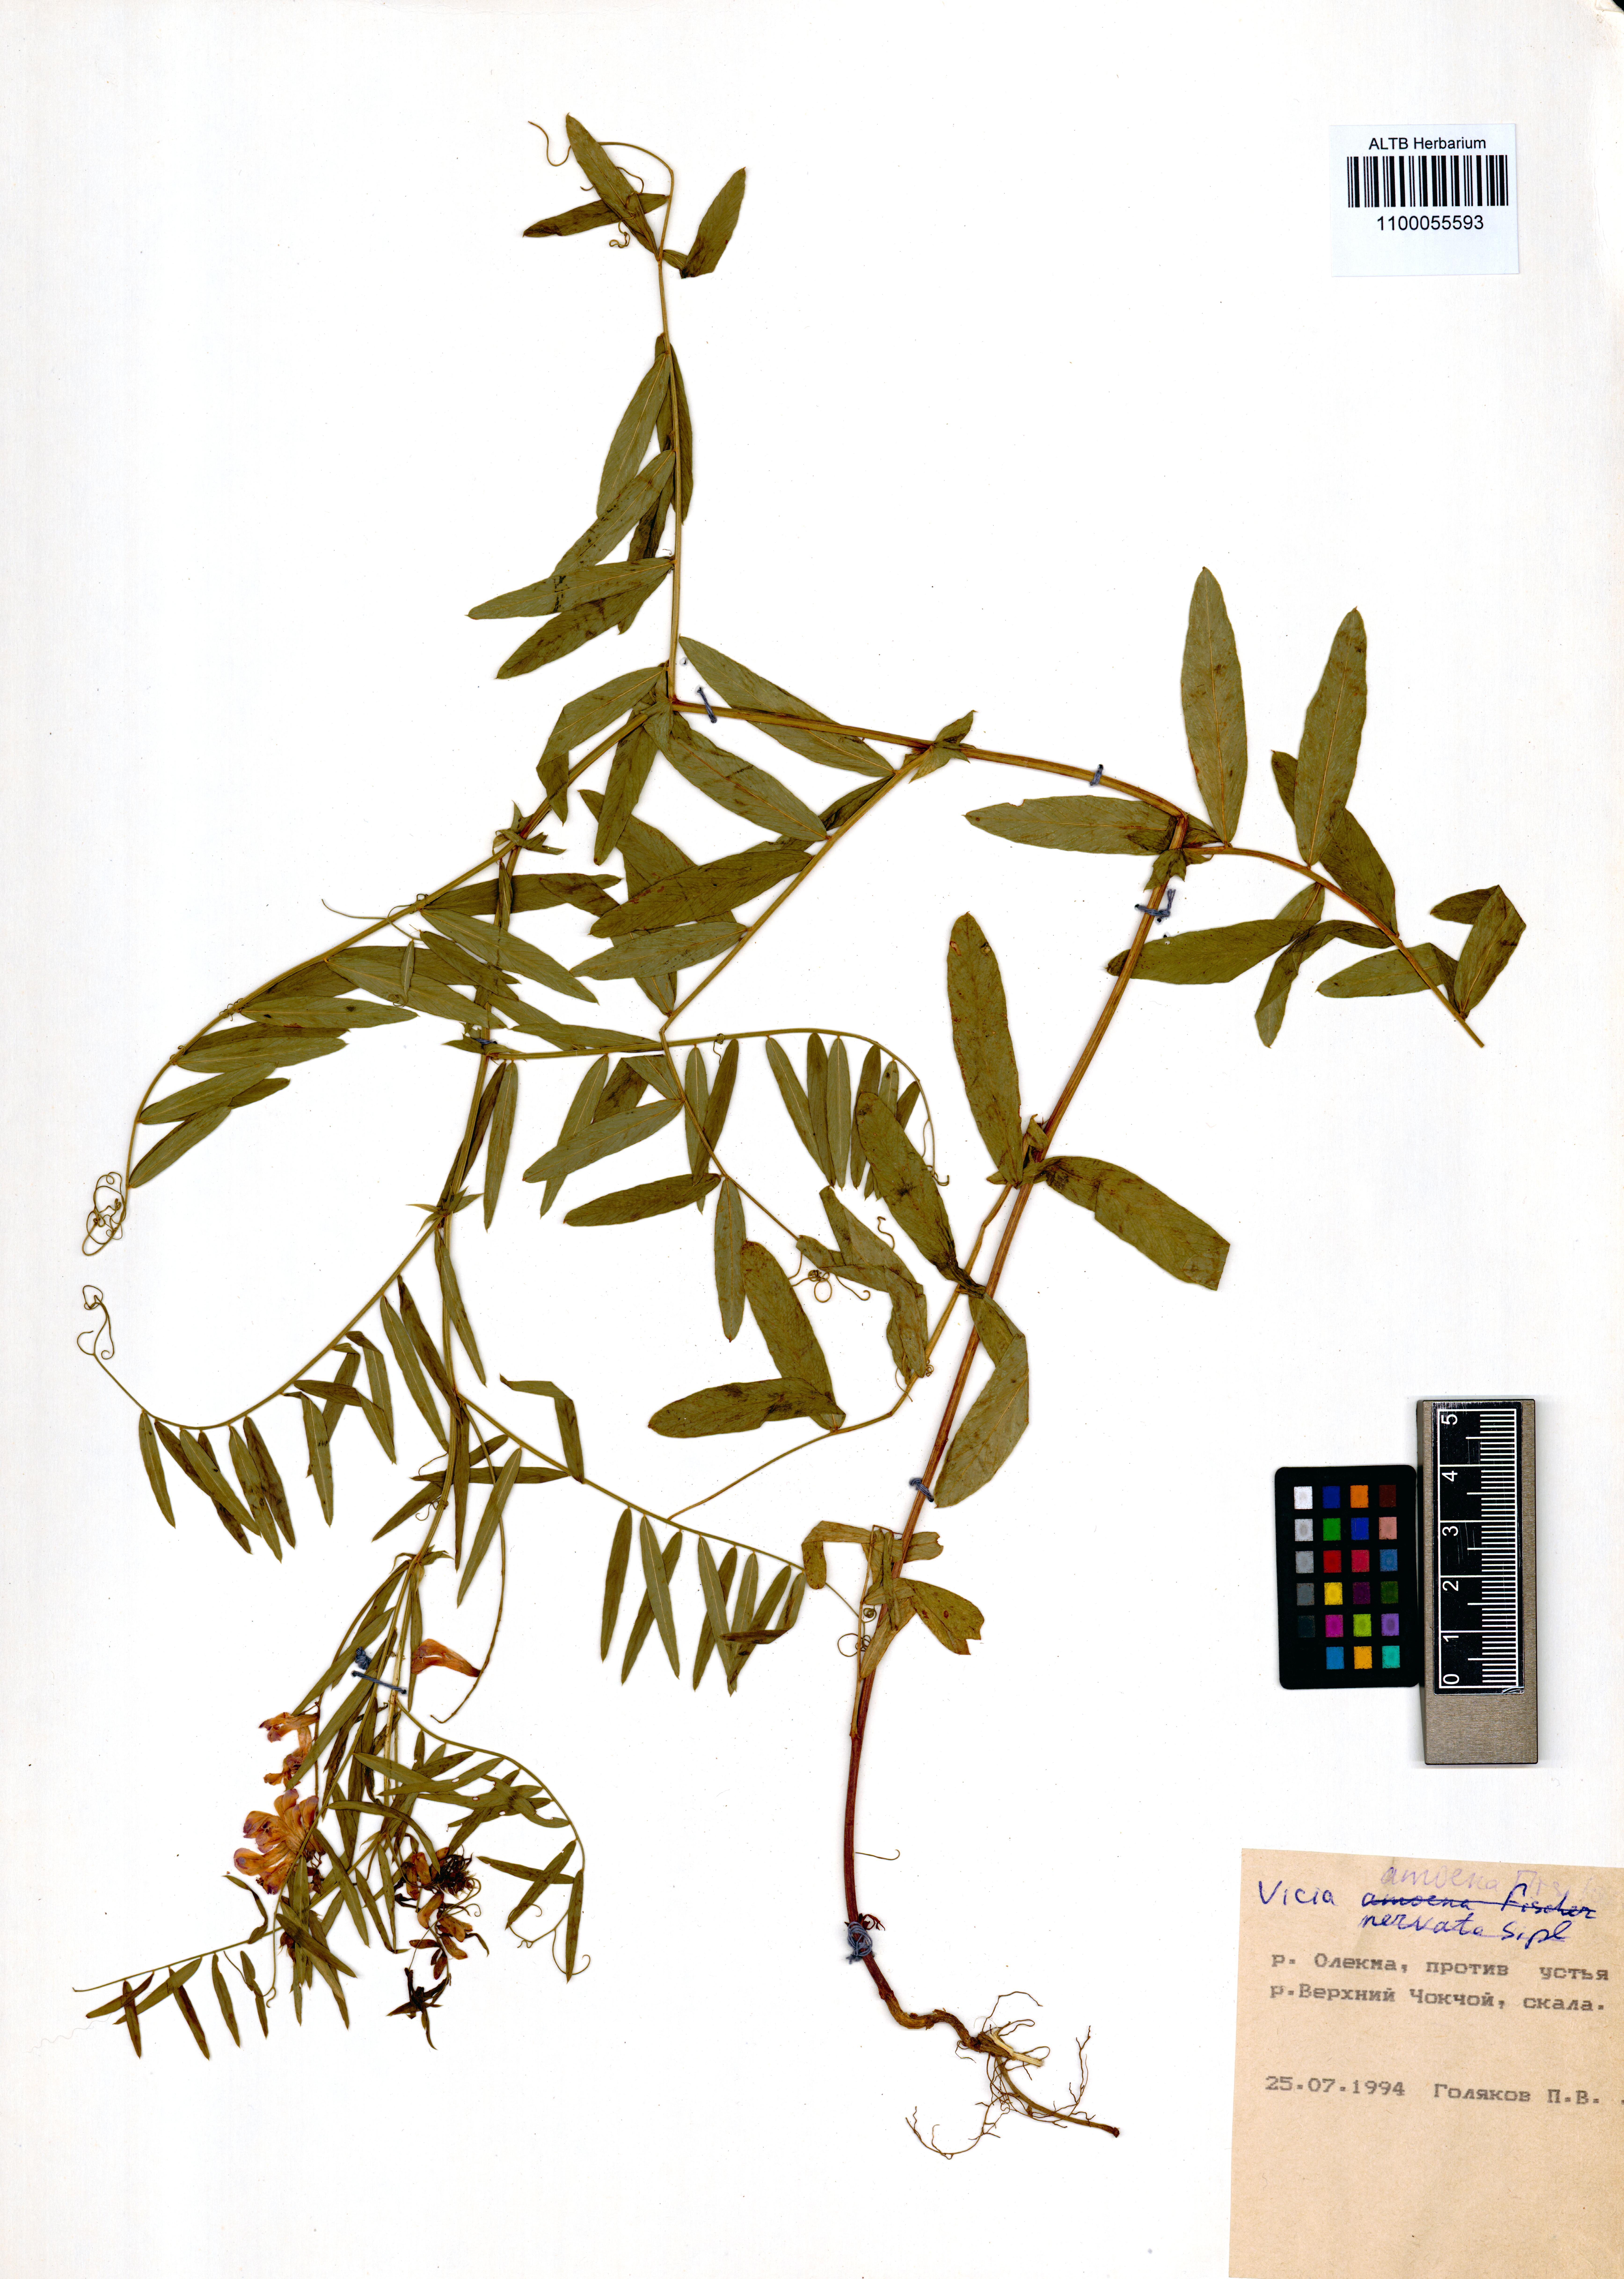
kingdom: Plantae
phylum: Tracheophyta
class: Magnoliopsida
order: Fabales
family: Fabaceae
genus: Vicia
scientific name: Vicia amoena
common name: Cheder ebs
